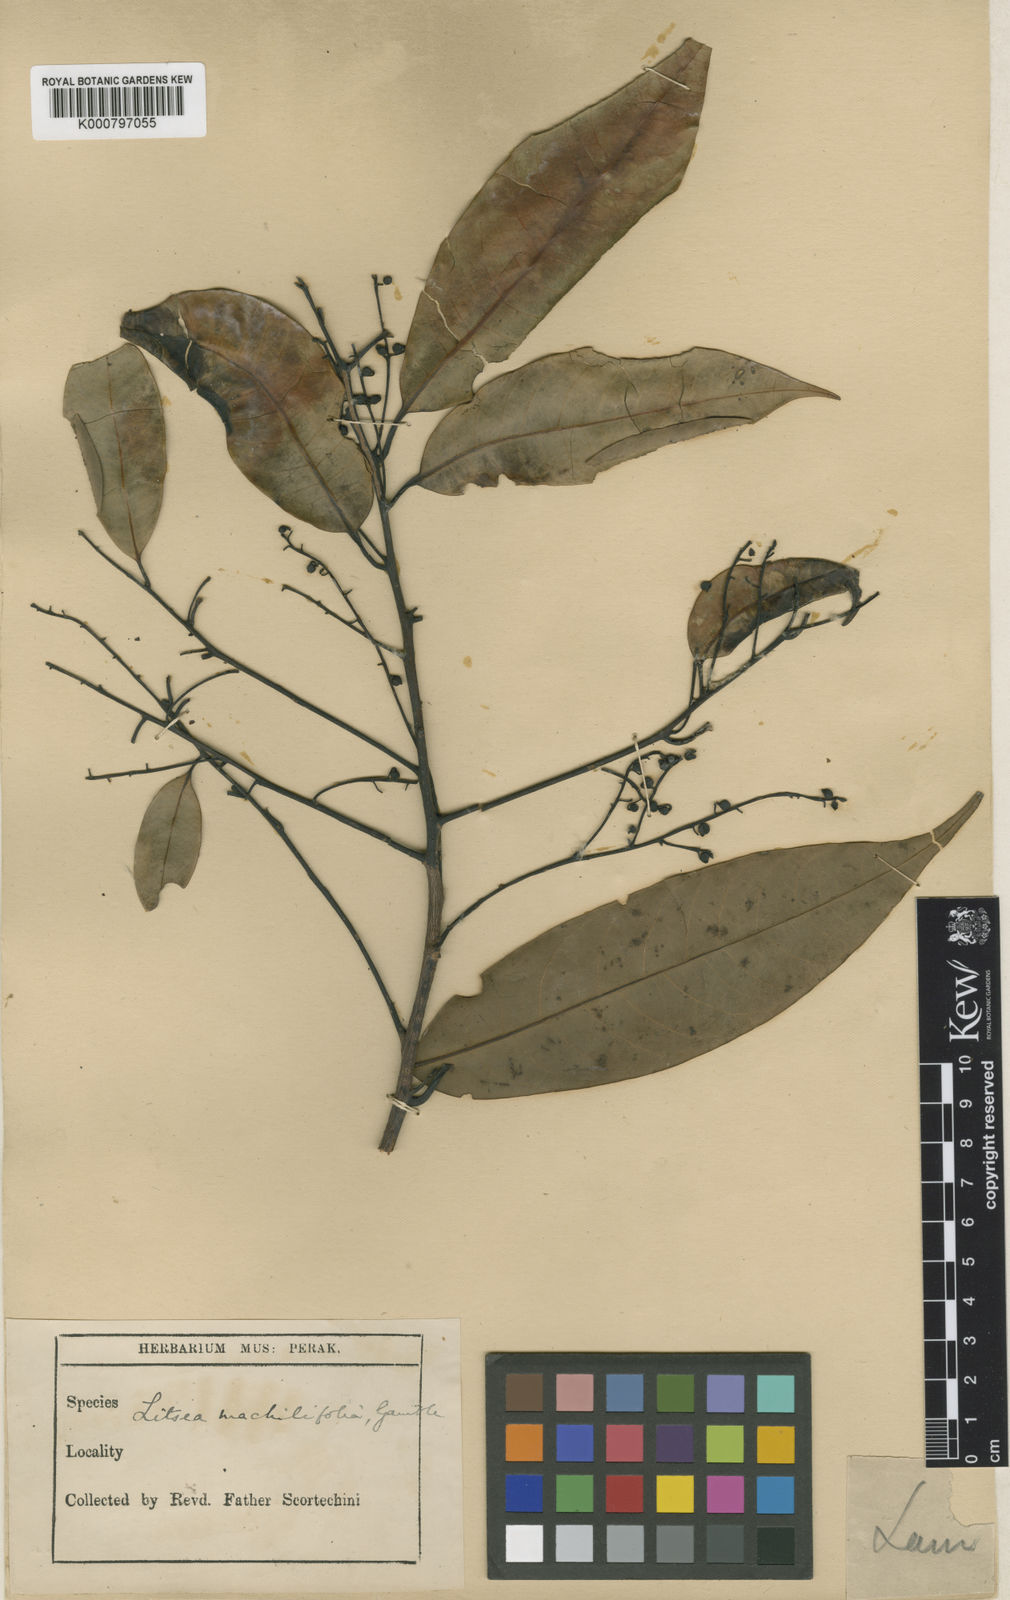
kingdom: Plantae
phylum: Tracheophyta
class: Magnoliopsida
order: Laurales
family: Lauraceae
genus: Litsea
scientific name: Litsea machilifolia
